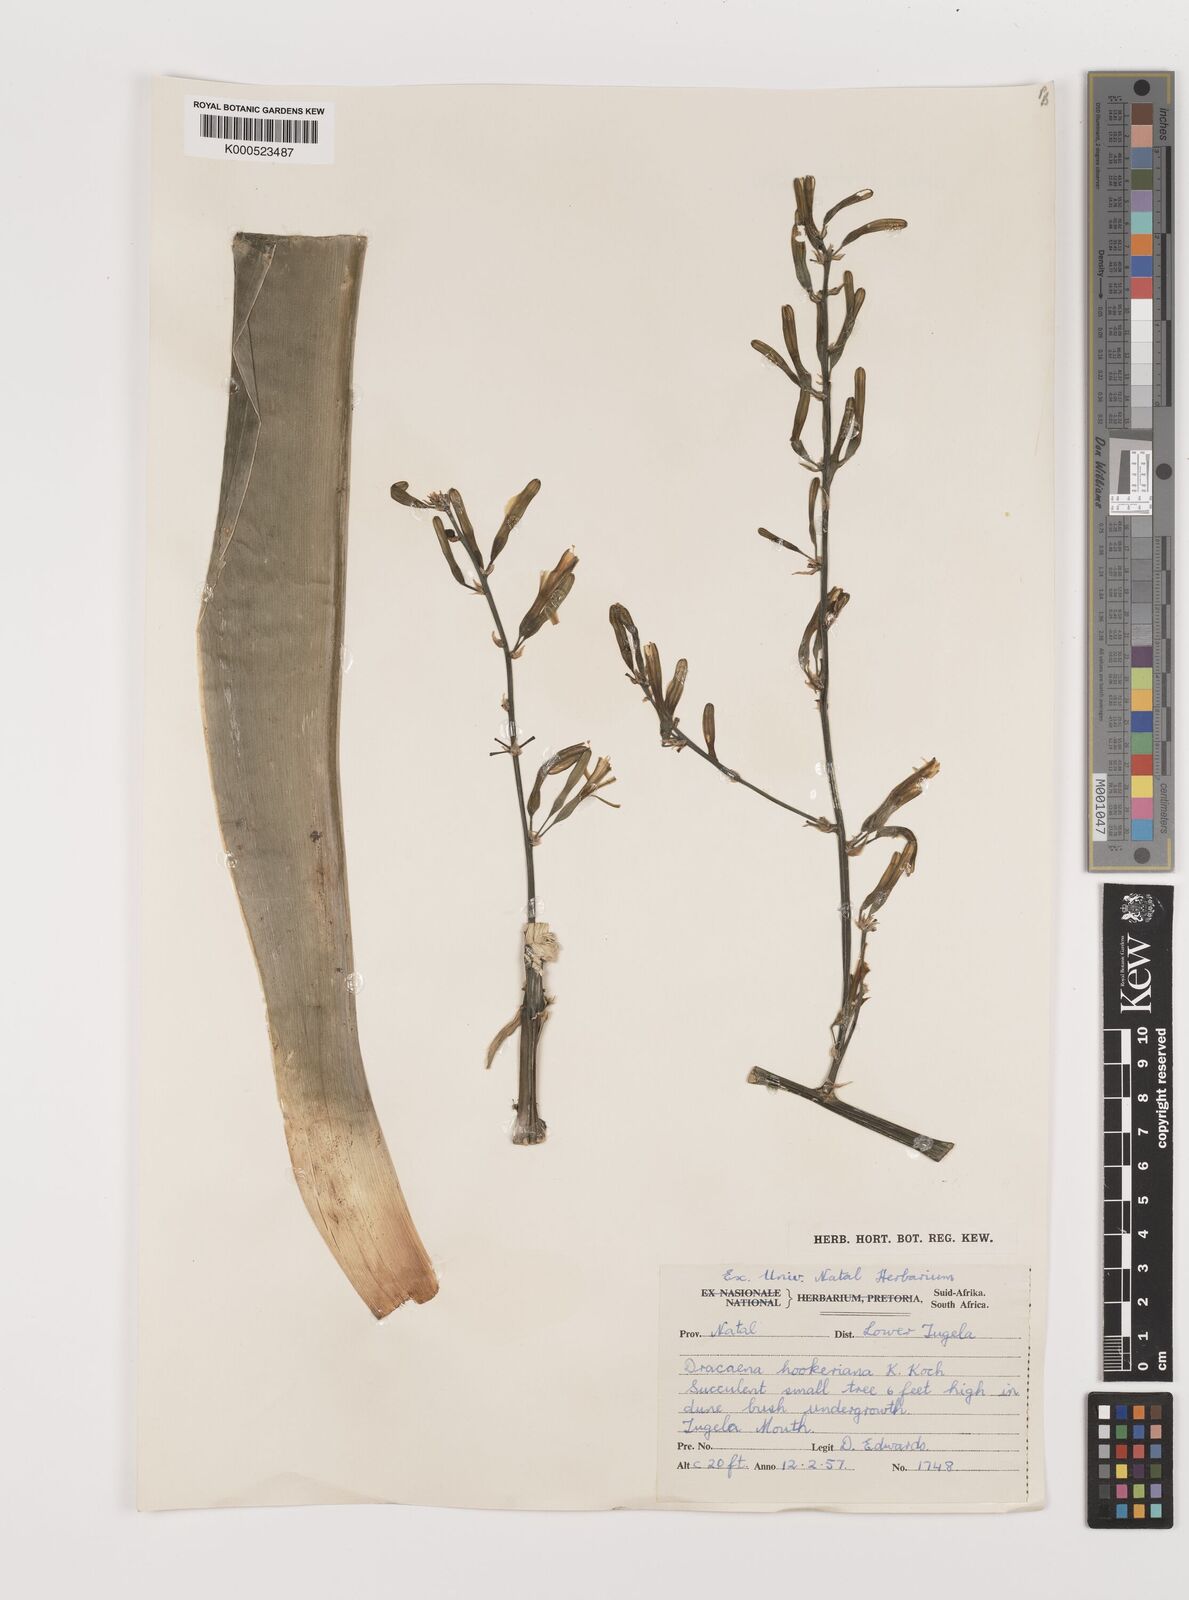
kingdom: Plantae
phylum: Tracheophyta
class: Liliopsida
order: Asparagales
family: Asparagaceae
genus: Dracaena
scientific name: Dracaena aletriformis
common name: Large-leaved dragon tree
